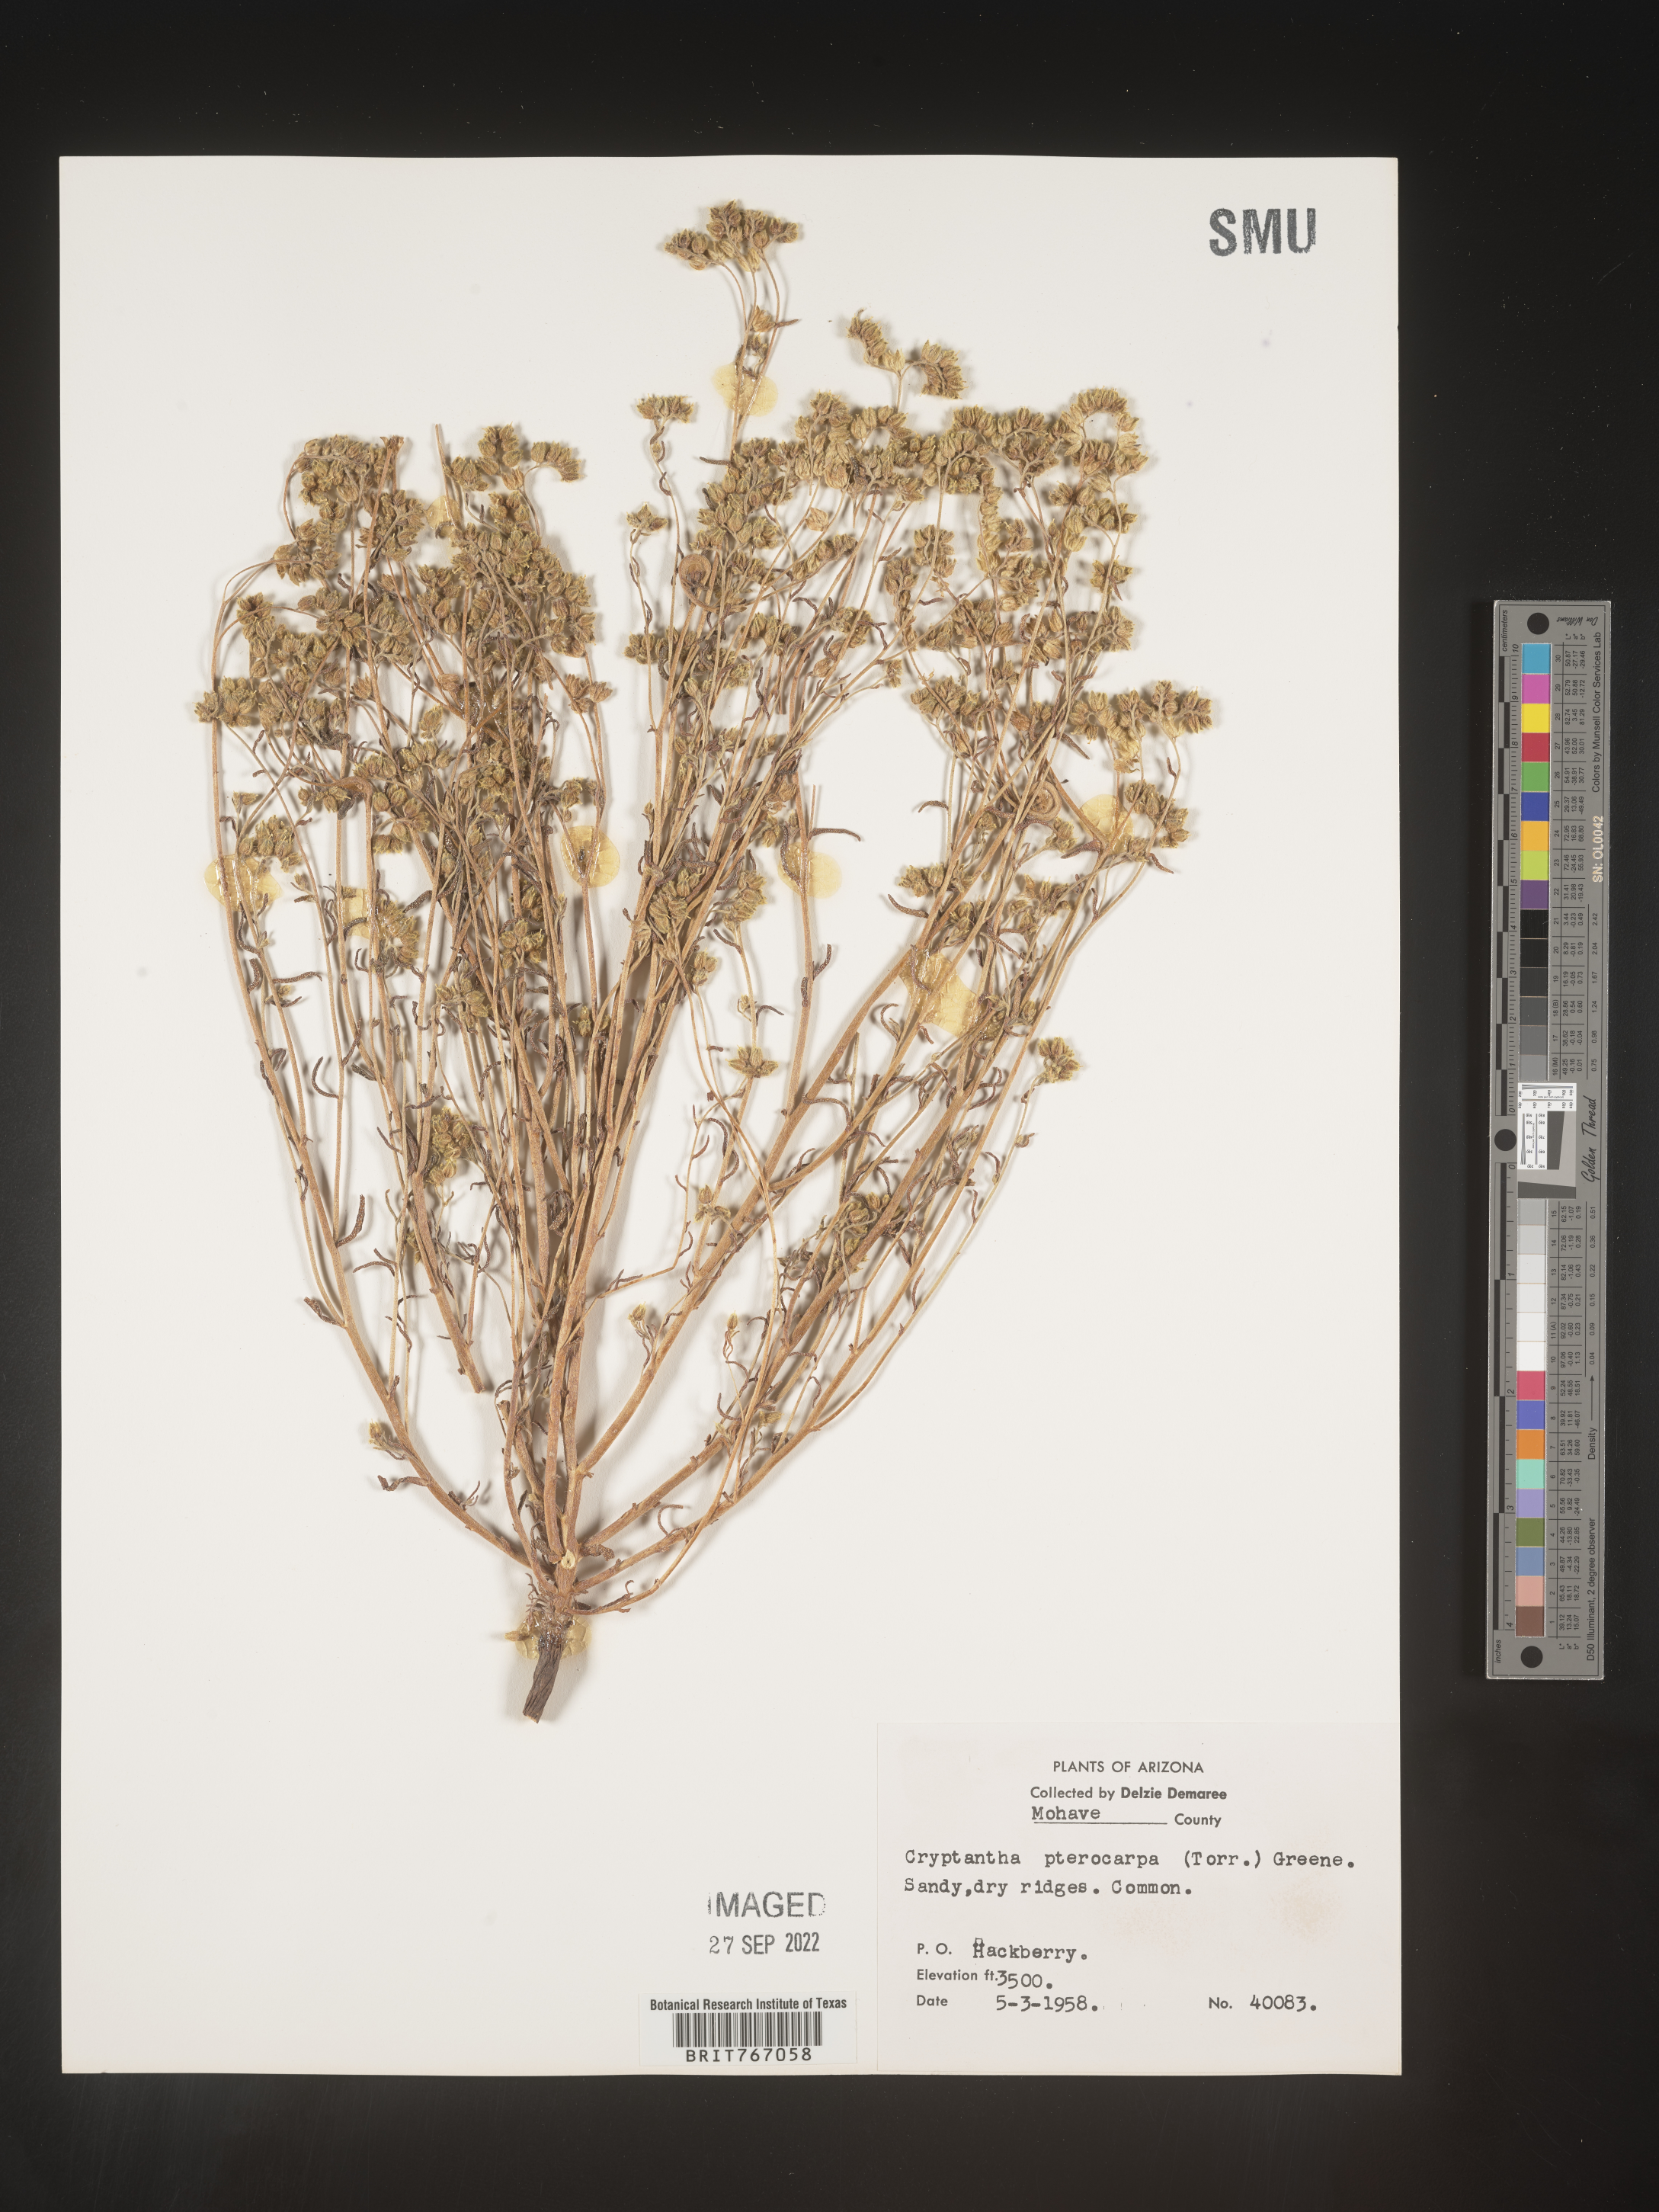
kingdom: Plantae
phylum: Tracheophyta
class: Magnoliopsida
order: Boraginales
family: Boraginaceae
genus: Cryptantha
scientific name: Cryptantha pterocarya
